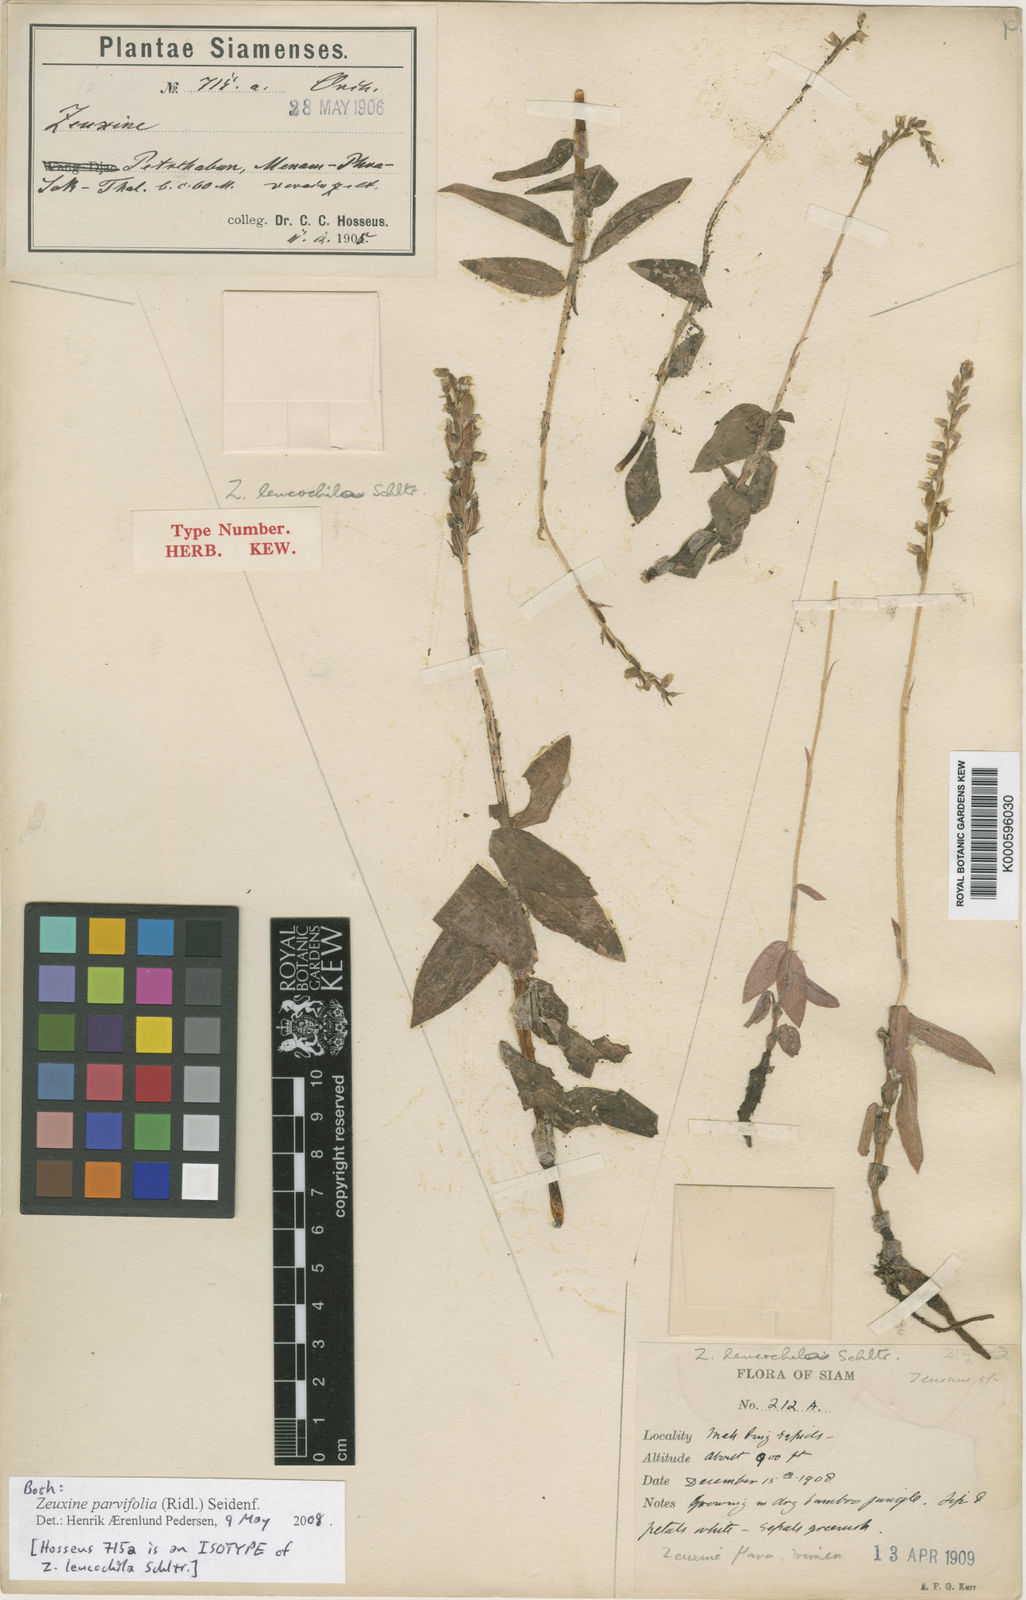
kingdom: Plantae
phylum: Tracheophyta
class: Liliopsida
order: Asparagales
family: Orchidaceae
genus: Zeuxine
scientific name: Zeuxine parvifolia
